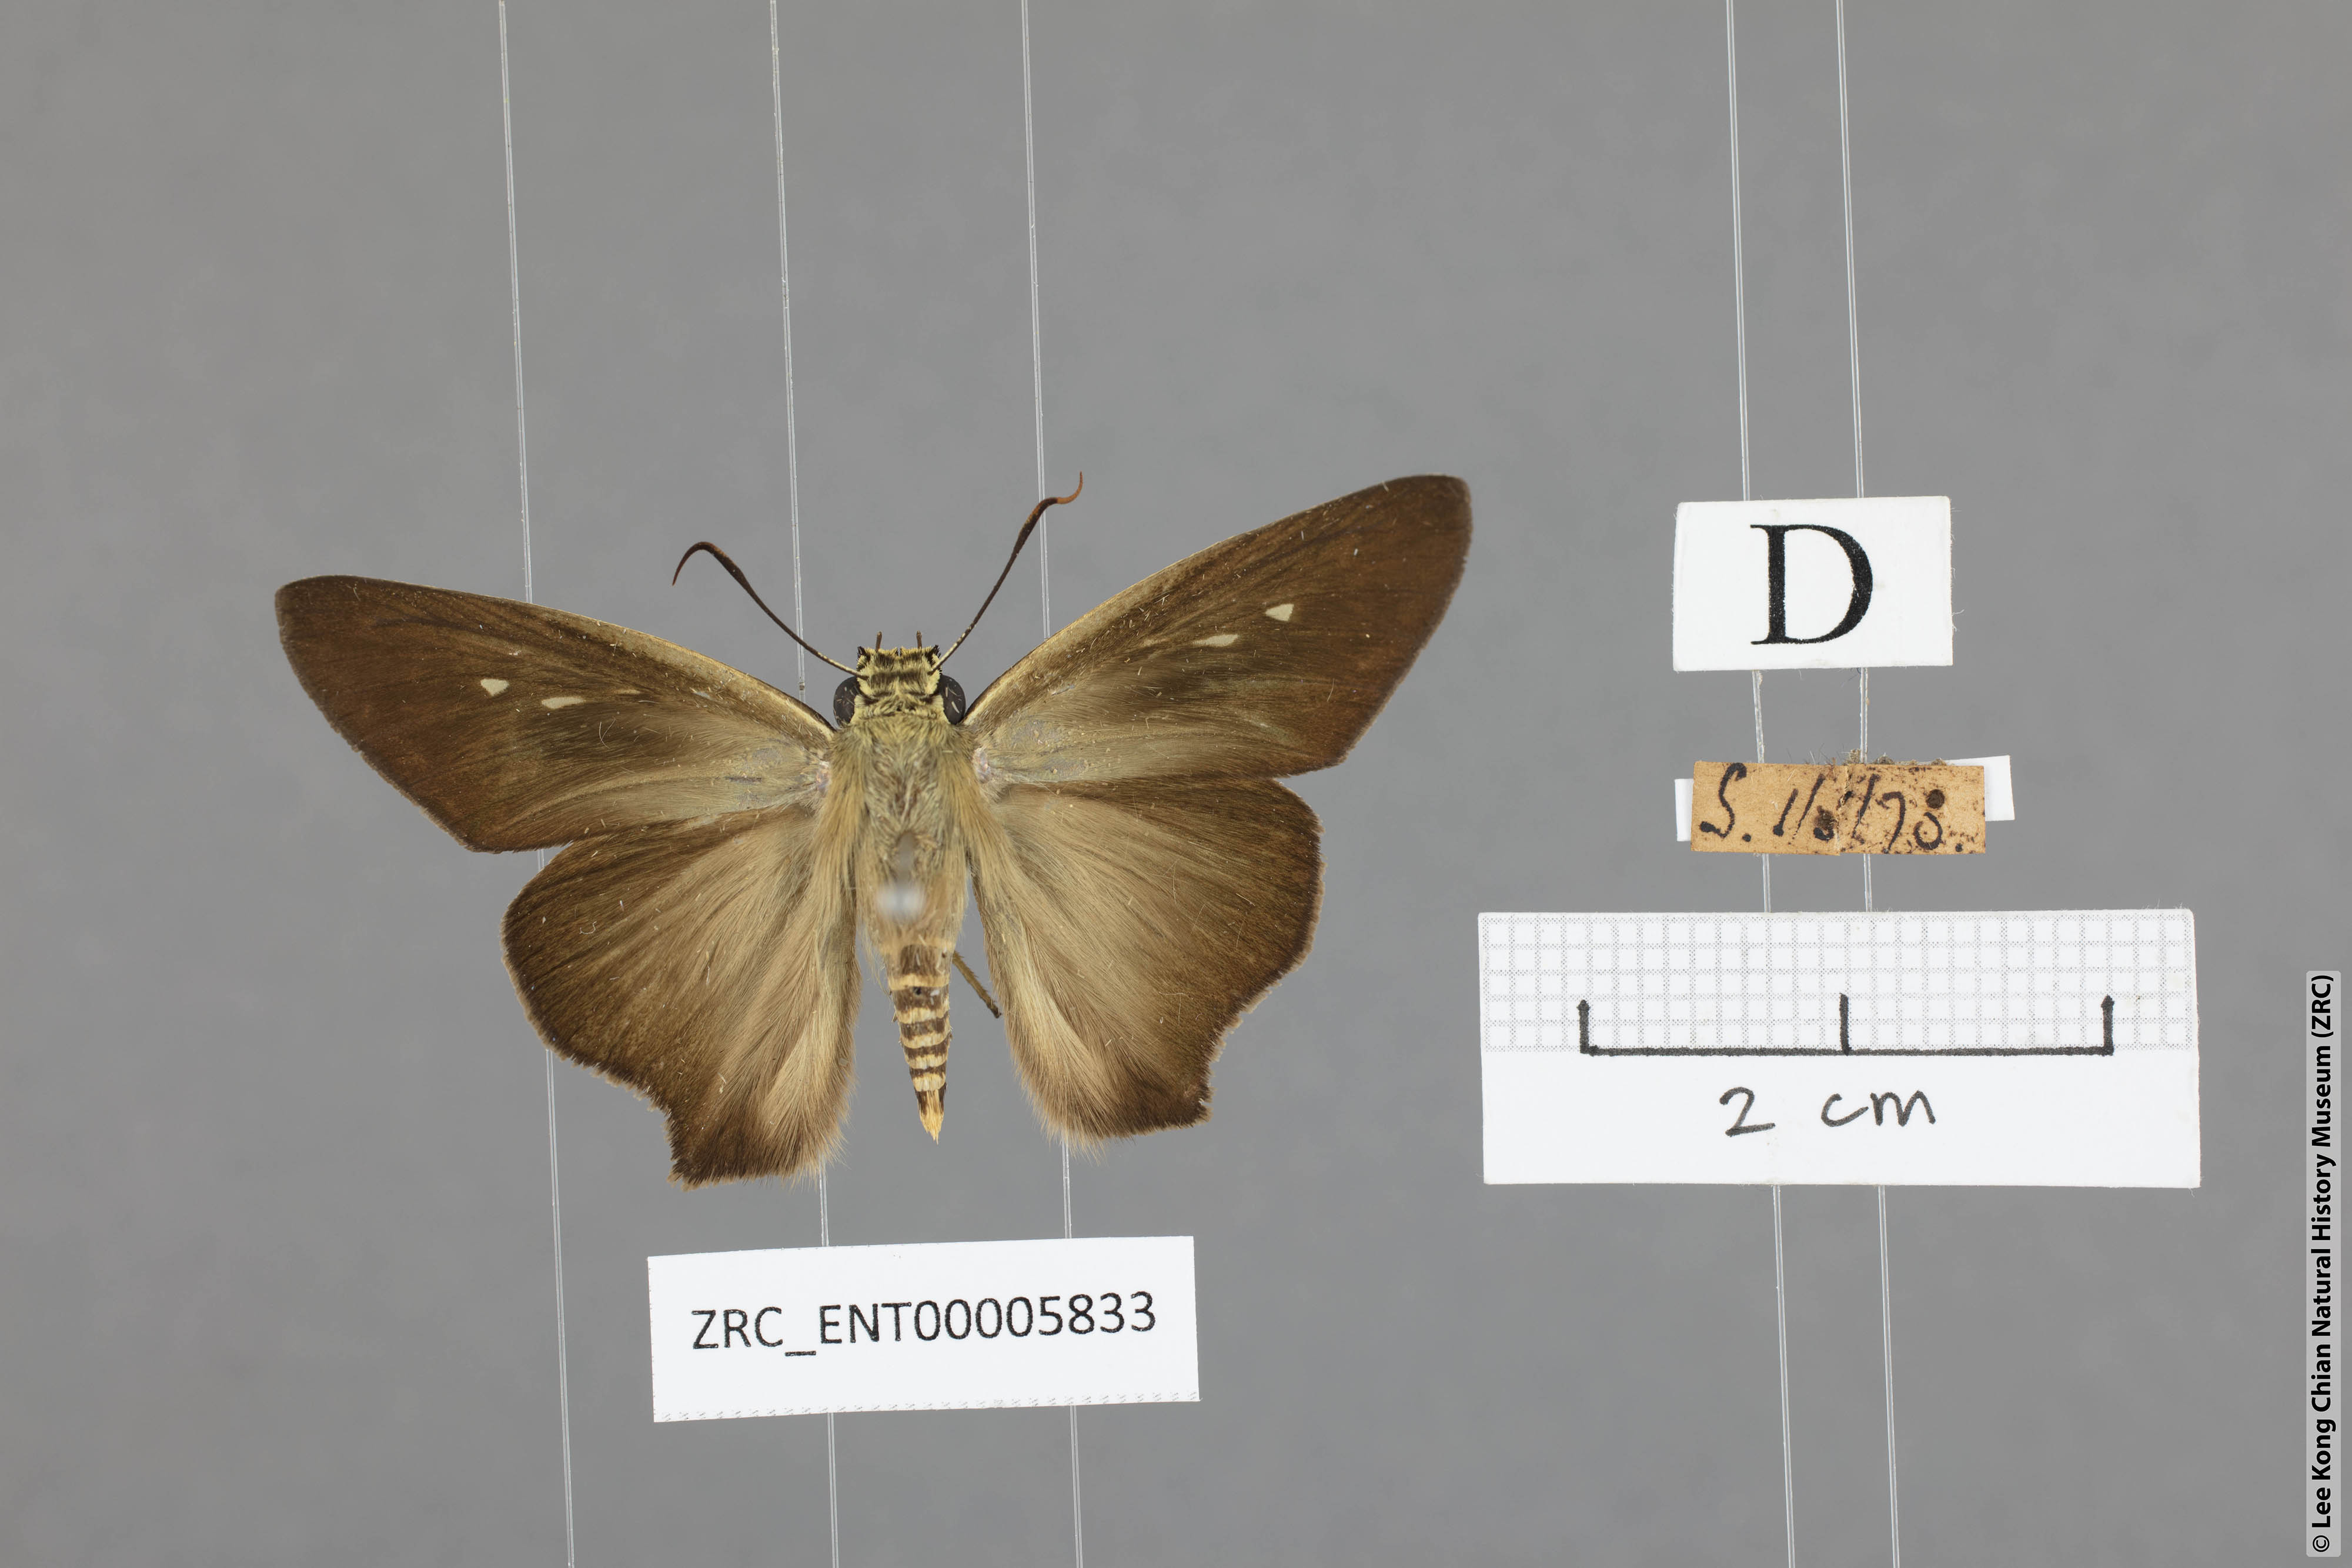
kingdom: Animalia
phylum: Arthropoda
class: Insecta
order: Lepidoptera
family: Hesperiidae
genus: Badamia
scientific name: Badamia exclamationis
